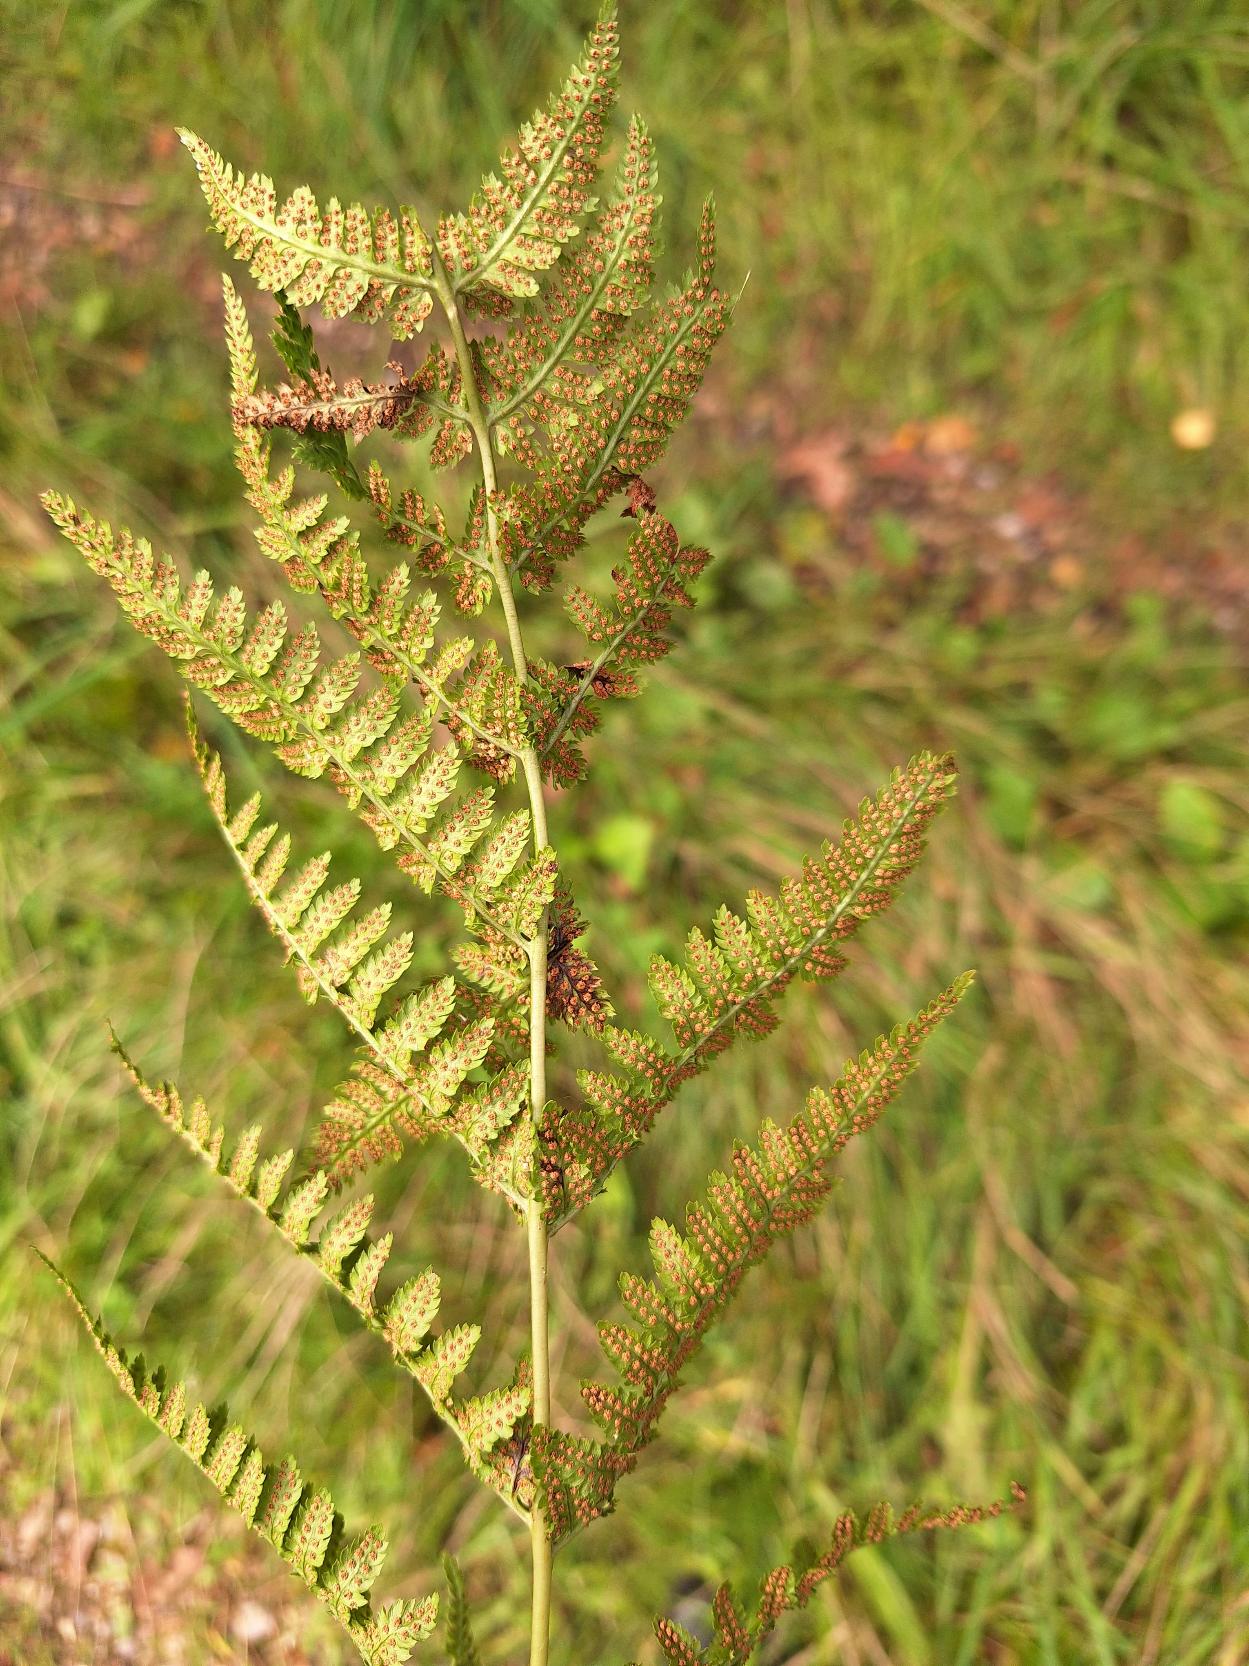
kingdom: Plantae
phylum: Tracheophyta
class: Polypodiopsida
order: Polypodiales
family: Dryopteridaceae
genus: Dryopteris
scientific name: Dryopteris
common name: Mangeløv (Dryopteris-slægten)
